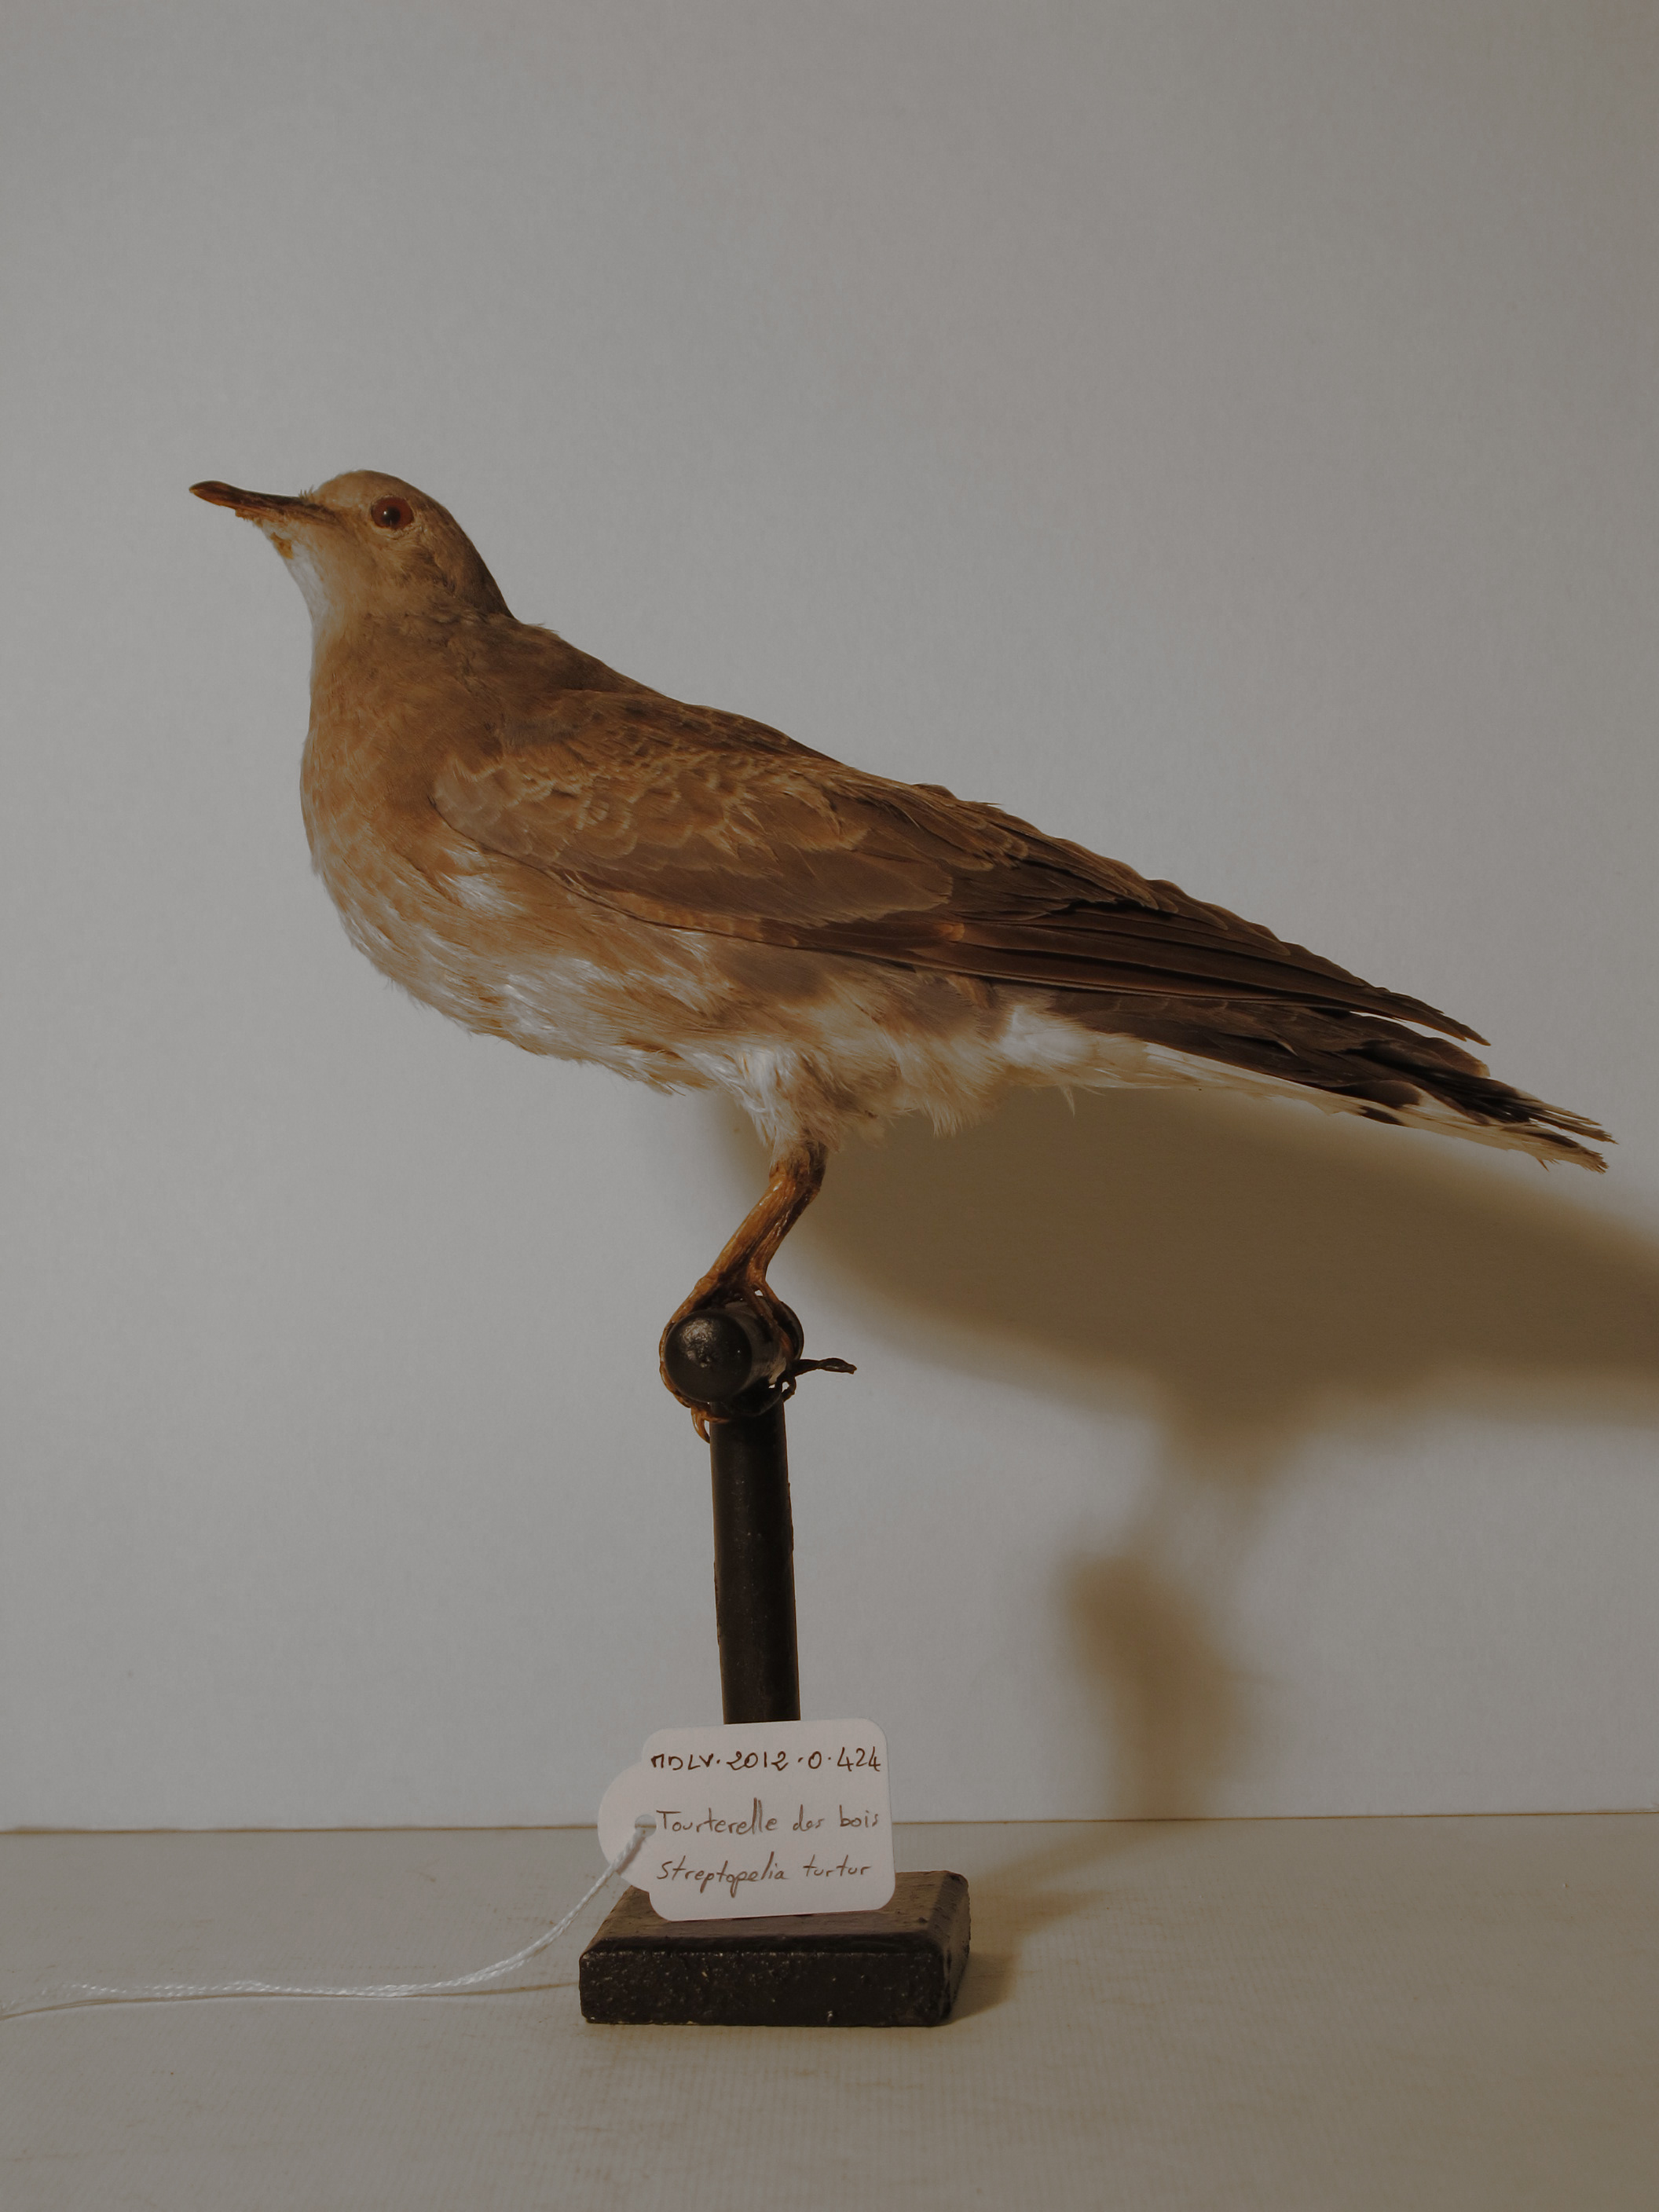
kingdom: Animalia
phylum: Chordata
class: Aves
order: Columbiformes
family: Columbidae
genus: Streptopelia
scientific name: Streptopelia turtur
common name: European Turtle-dove
